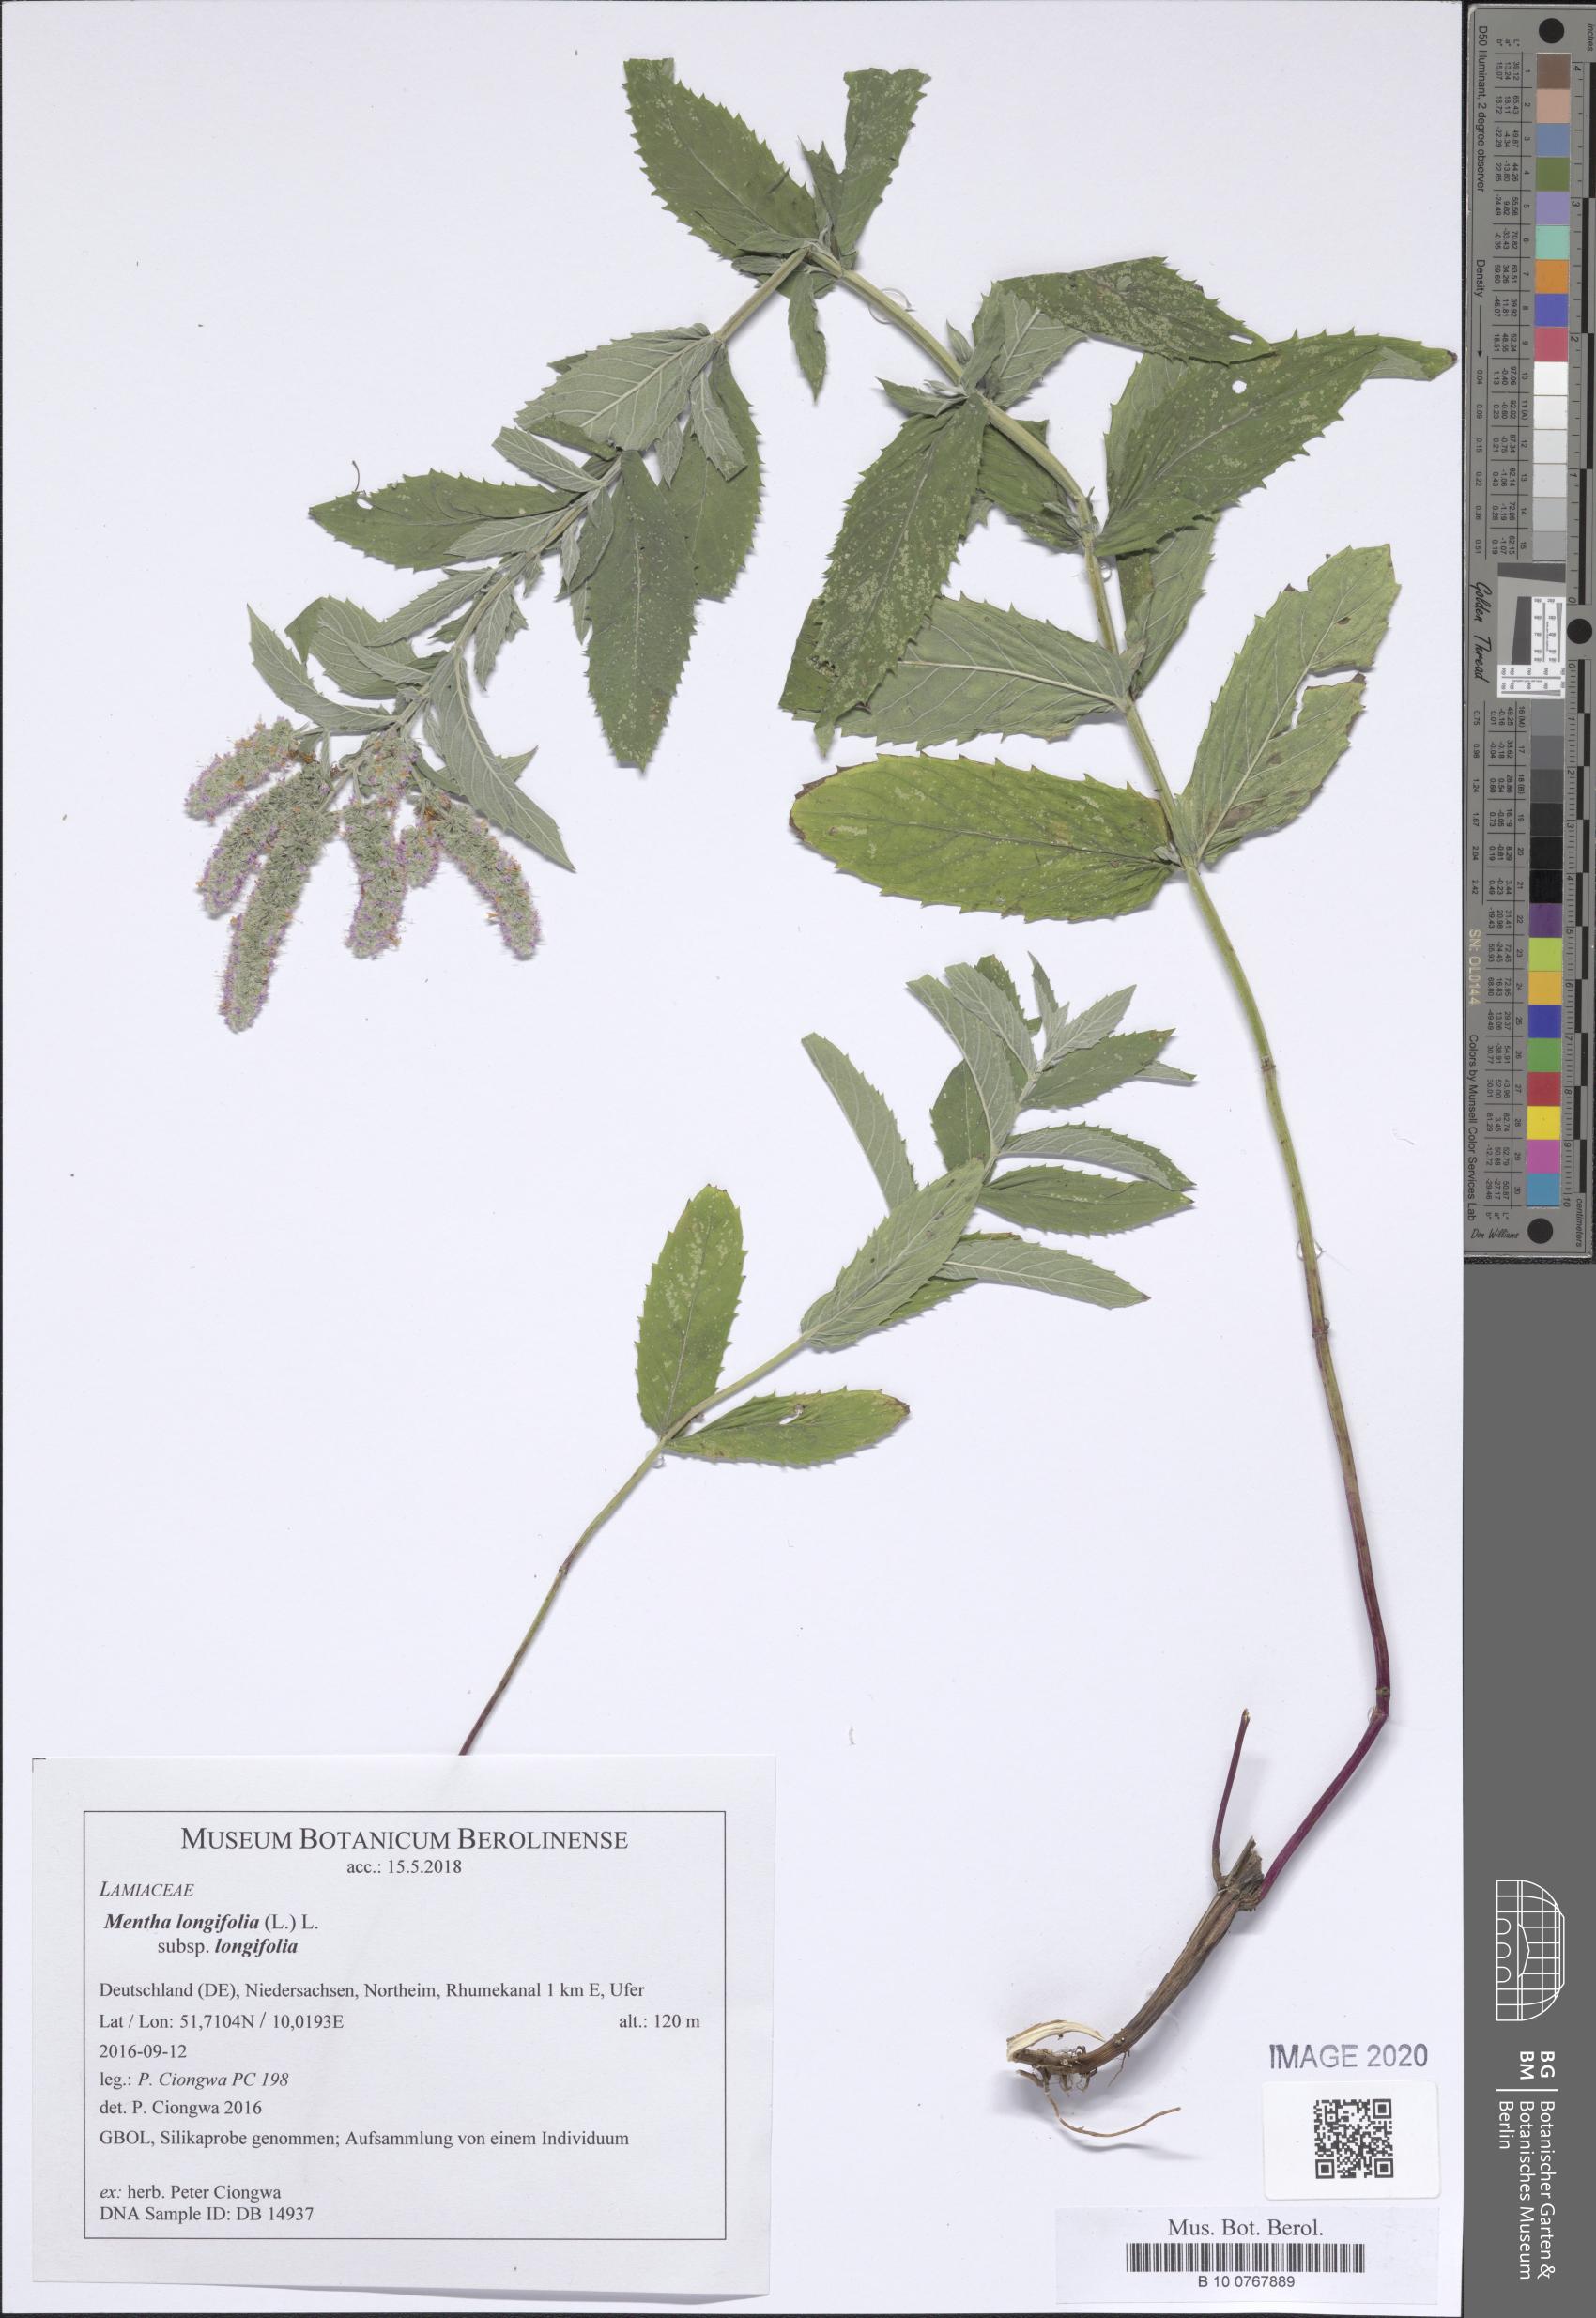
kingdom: Plantae
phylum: Tracheophyta
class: Magnoliopsida
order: Lamiales
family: Lamiaceae
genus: Mentha
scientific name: Mentha longifolia
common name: Horse mint
